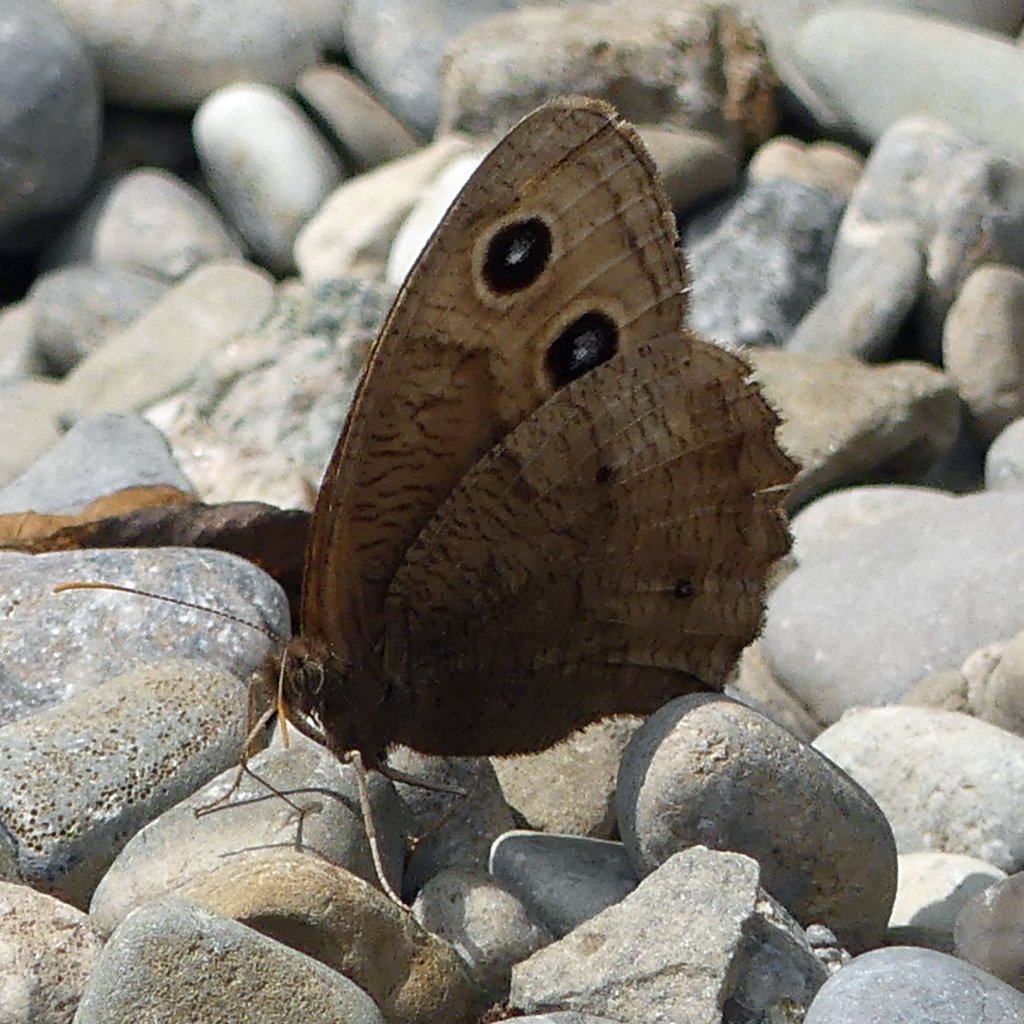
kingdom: Animalia
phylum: Arthropoda
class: Insecta
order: Lepidoptera
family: Nymphalidae
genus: Cercyonis
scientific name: Cercyonis pegala
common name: Common Wood-Nymph
